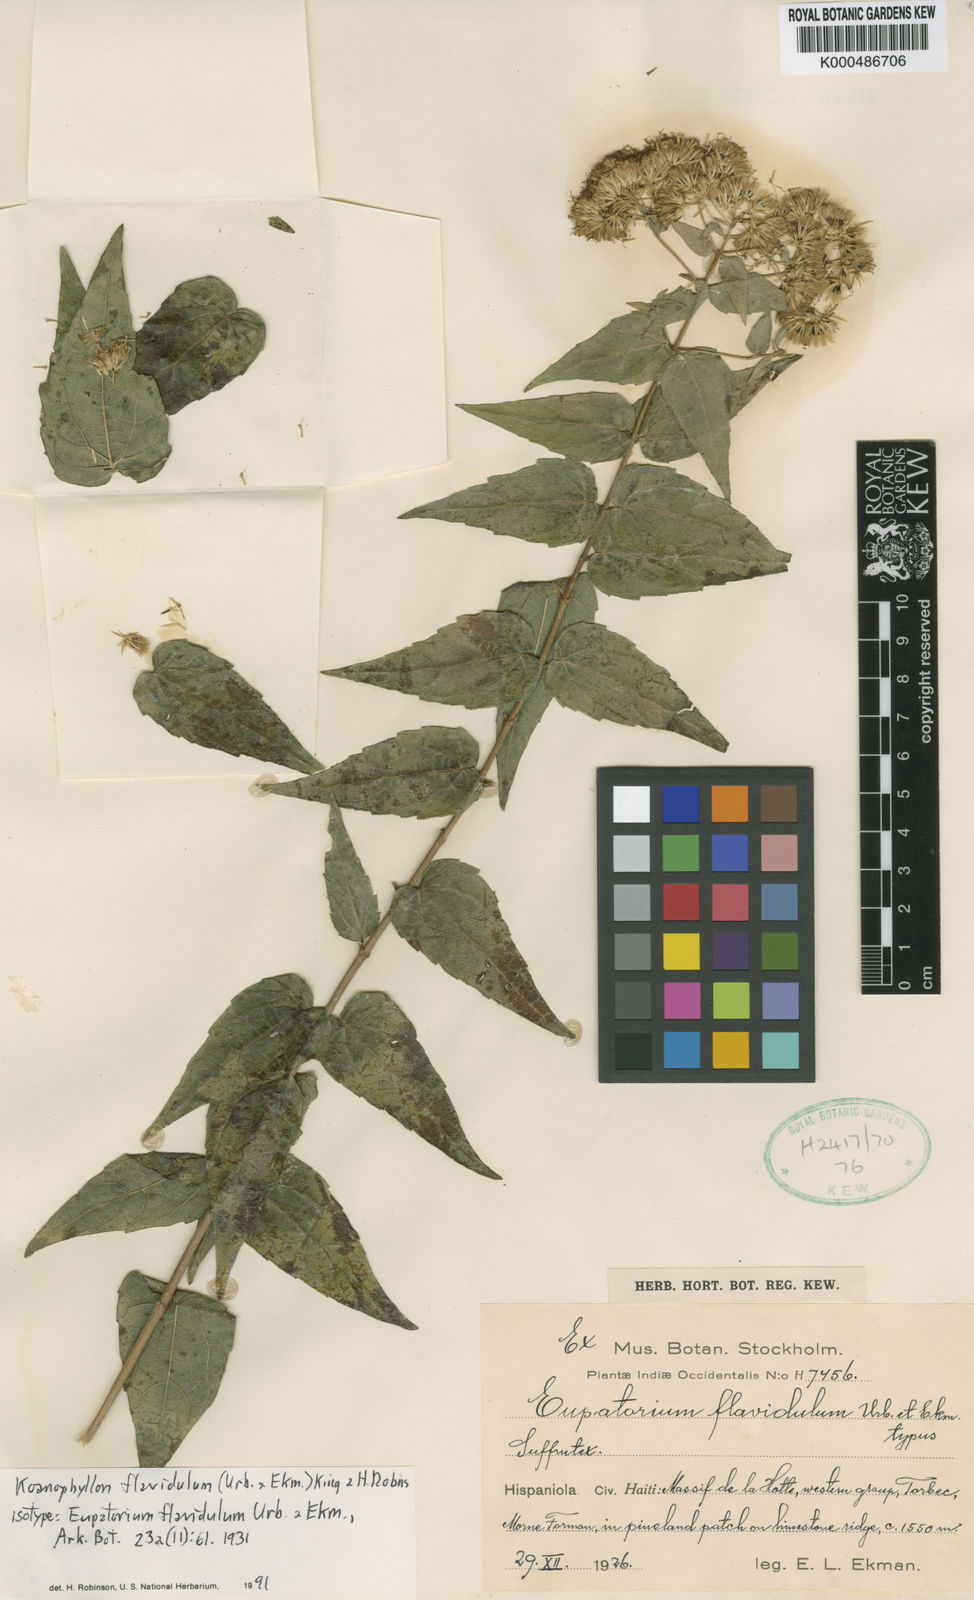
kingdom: Plantae
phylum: Tracheophyta
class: Magnoliopsida
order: Asterales
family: Asteraceae
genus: Koanophyllon
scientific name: Koanophyllon flavidulum
